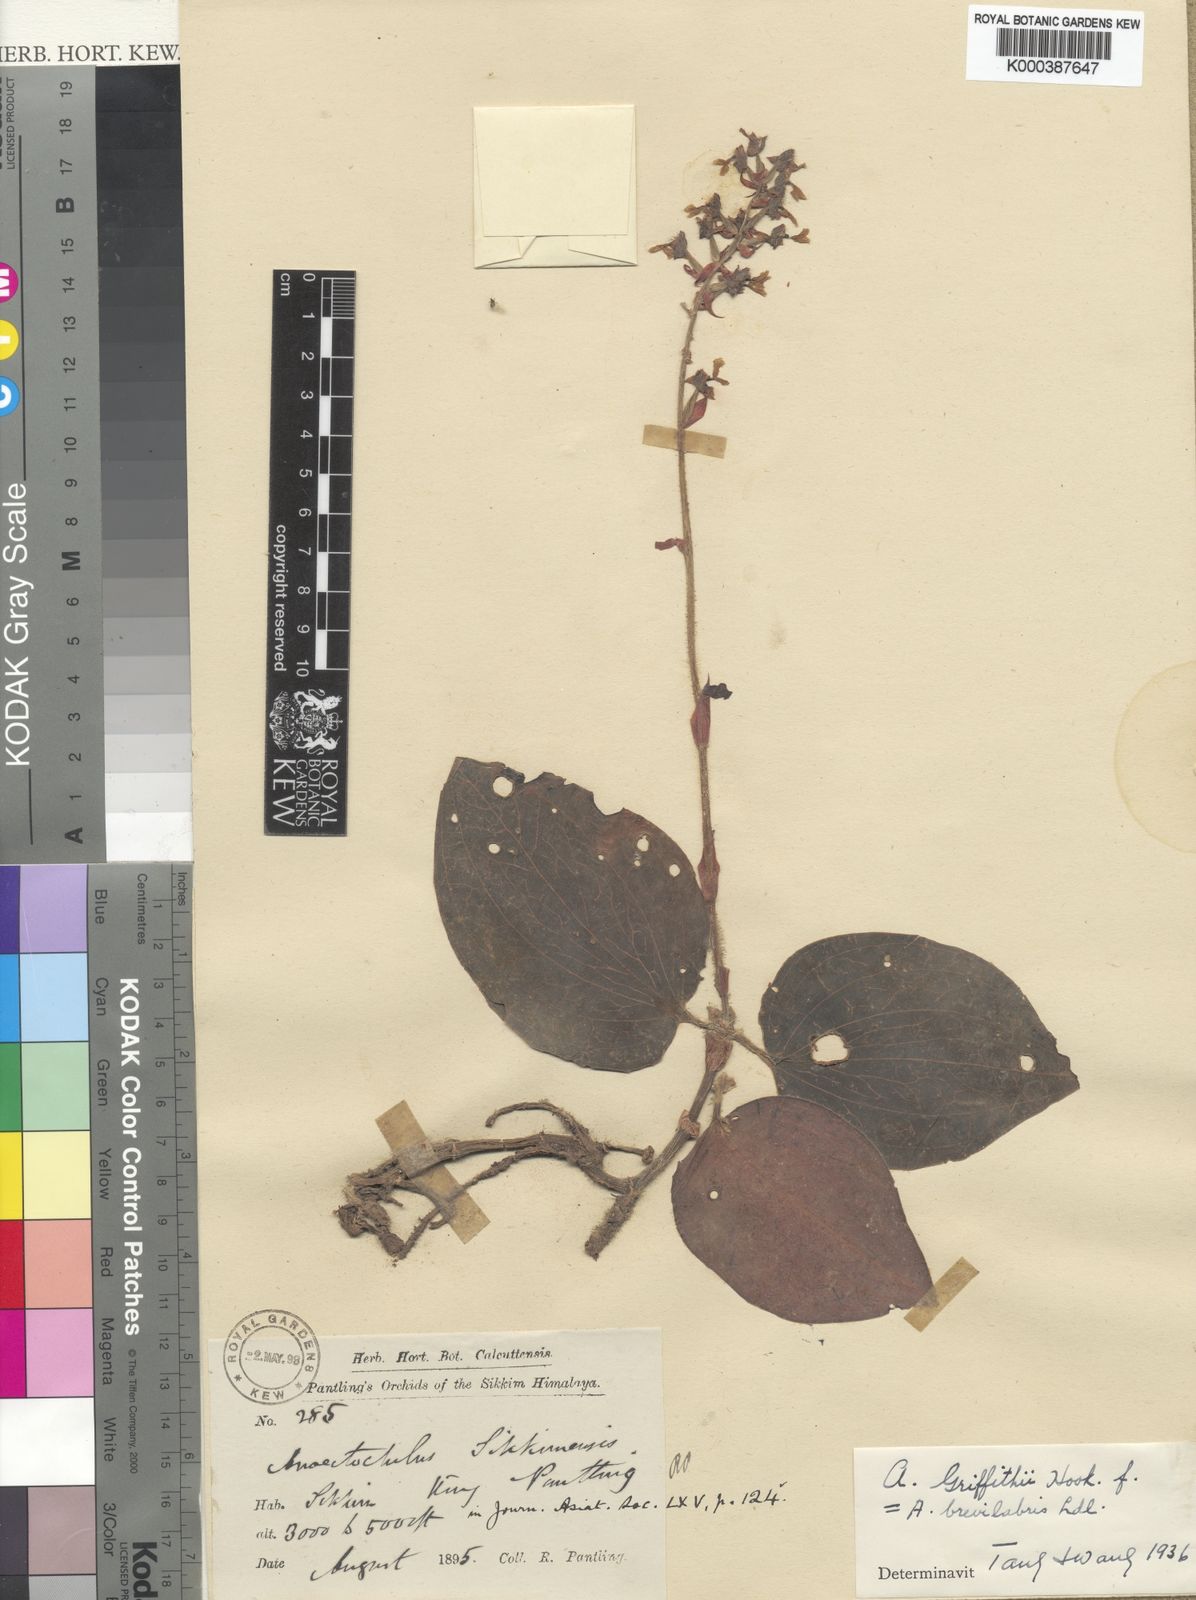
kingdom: Plantae
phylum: Tracheophyta
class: Liliopsida
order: Asparagales
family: Orchidaceae
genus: Anoectochilus
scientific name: Anoectochilus brevilabris
